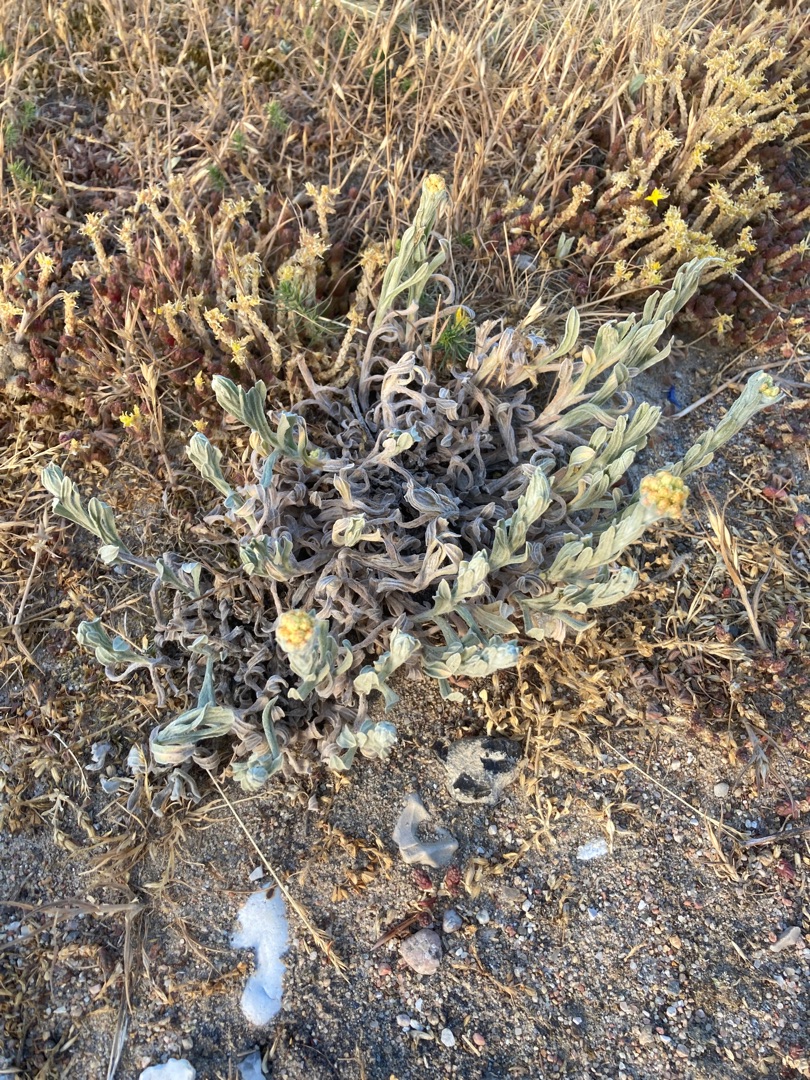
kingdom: Plantae
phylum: Tracheophyta
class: Magnoliopsida
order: Asterales
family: Asteraceae
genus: Helichrysum
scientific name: Helichrysum arenarium
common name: Gul evighedsblomst
